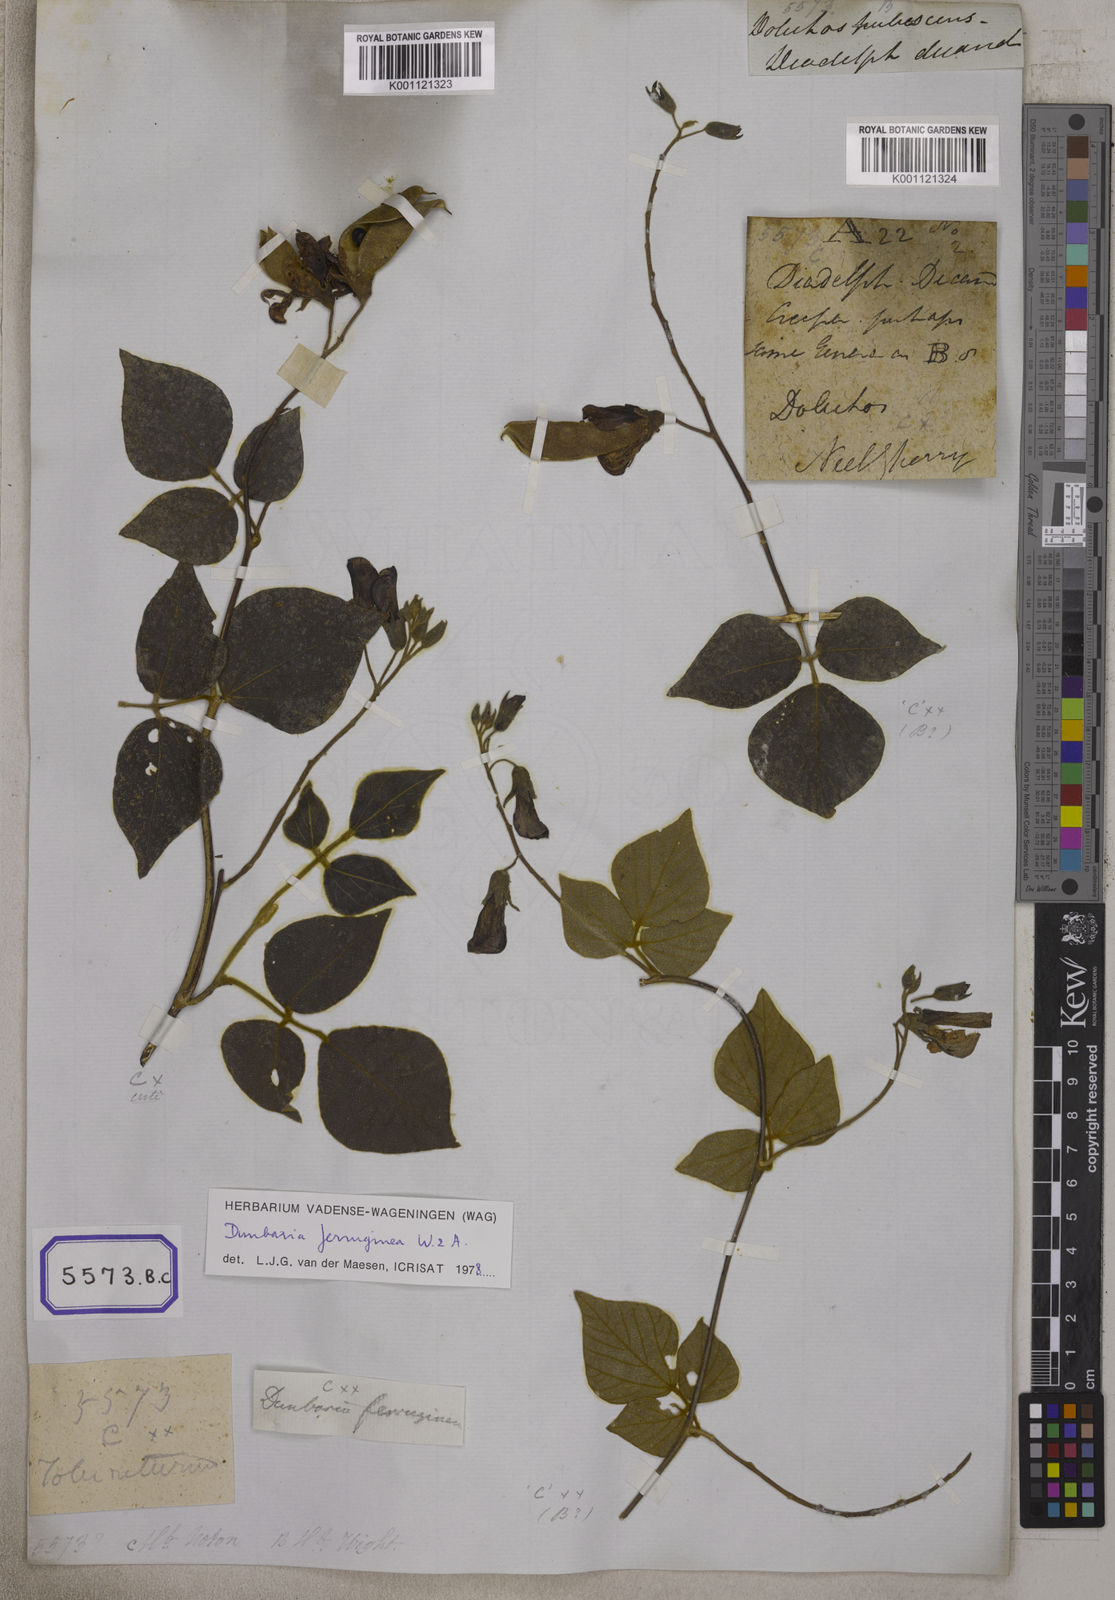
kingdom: Plantae
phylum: Tracheophyta
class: Magnoliopsida
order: Fabales
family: Fabaceae
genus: Dunbaria
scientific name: Dunbaria ferruginea
